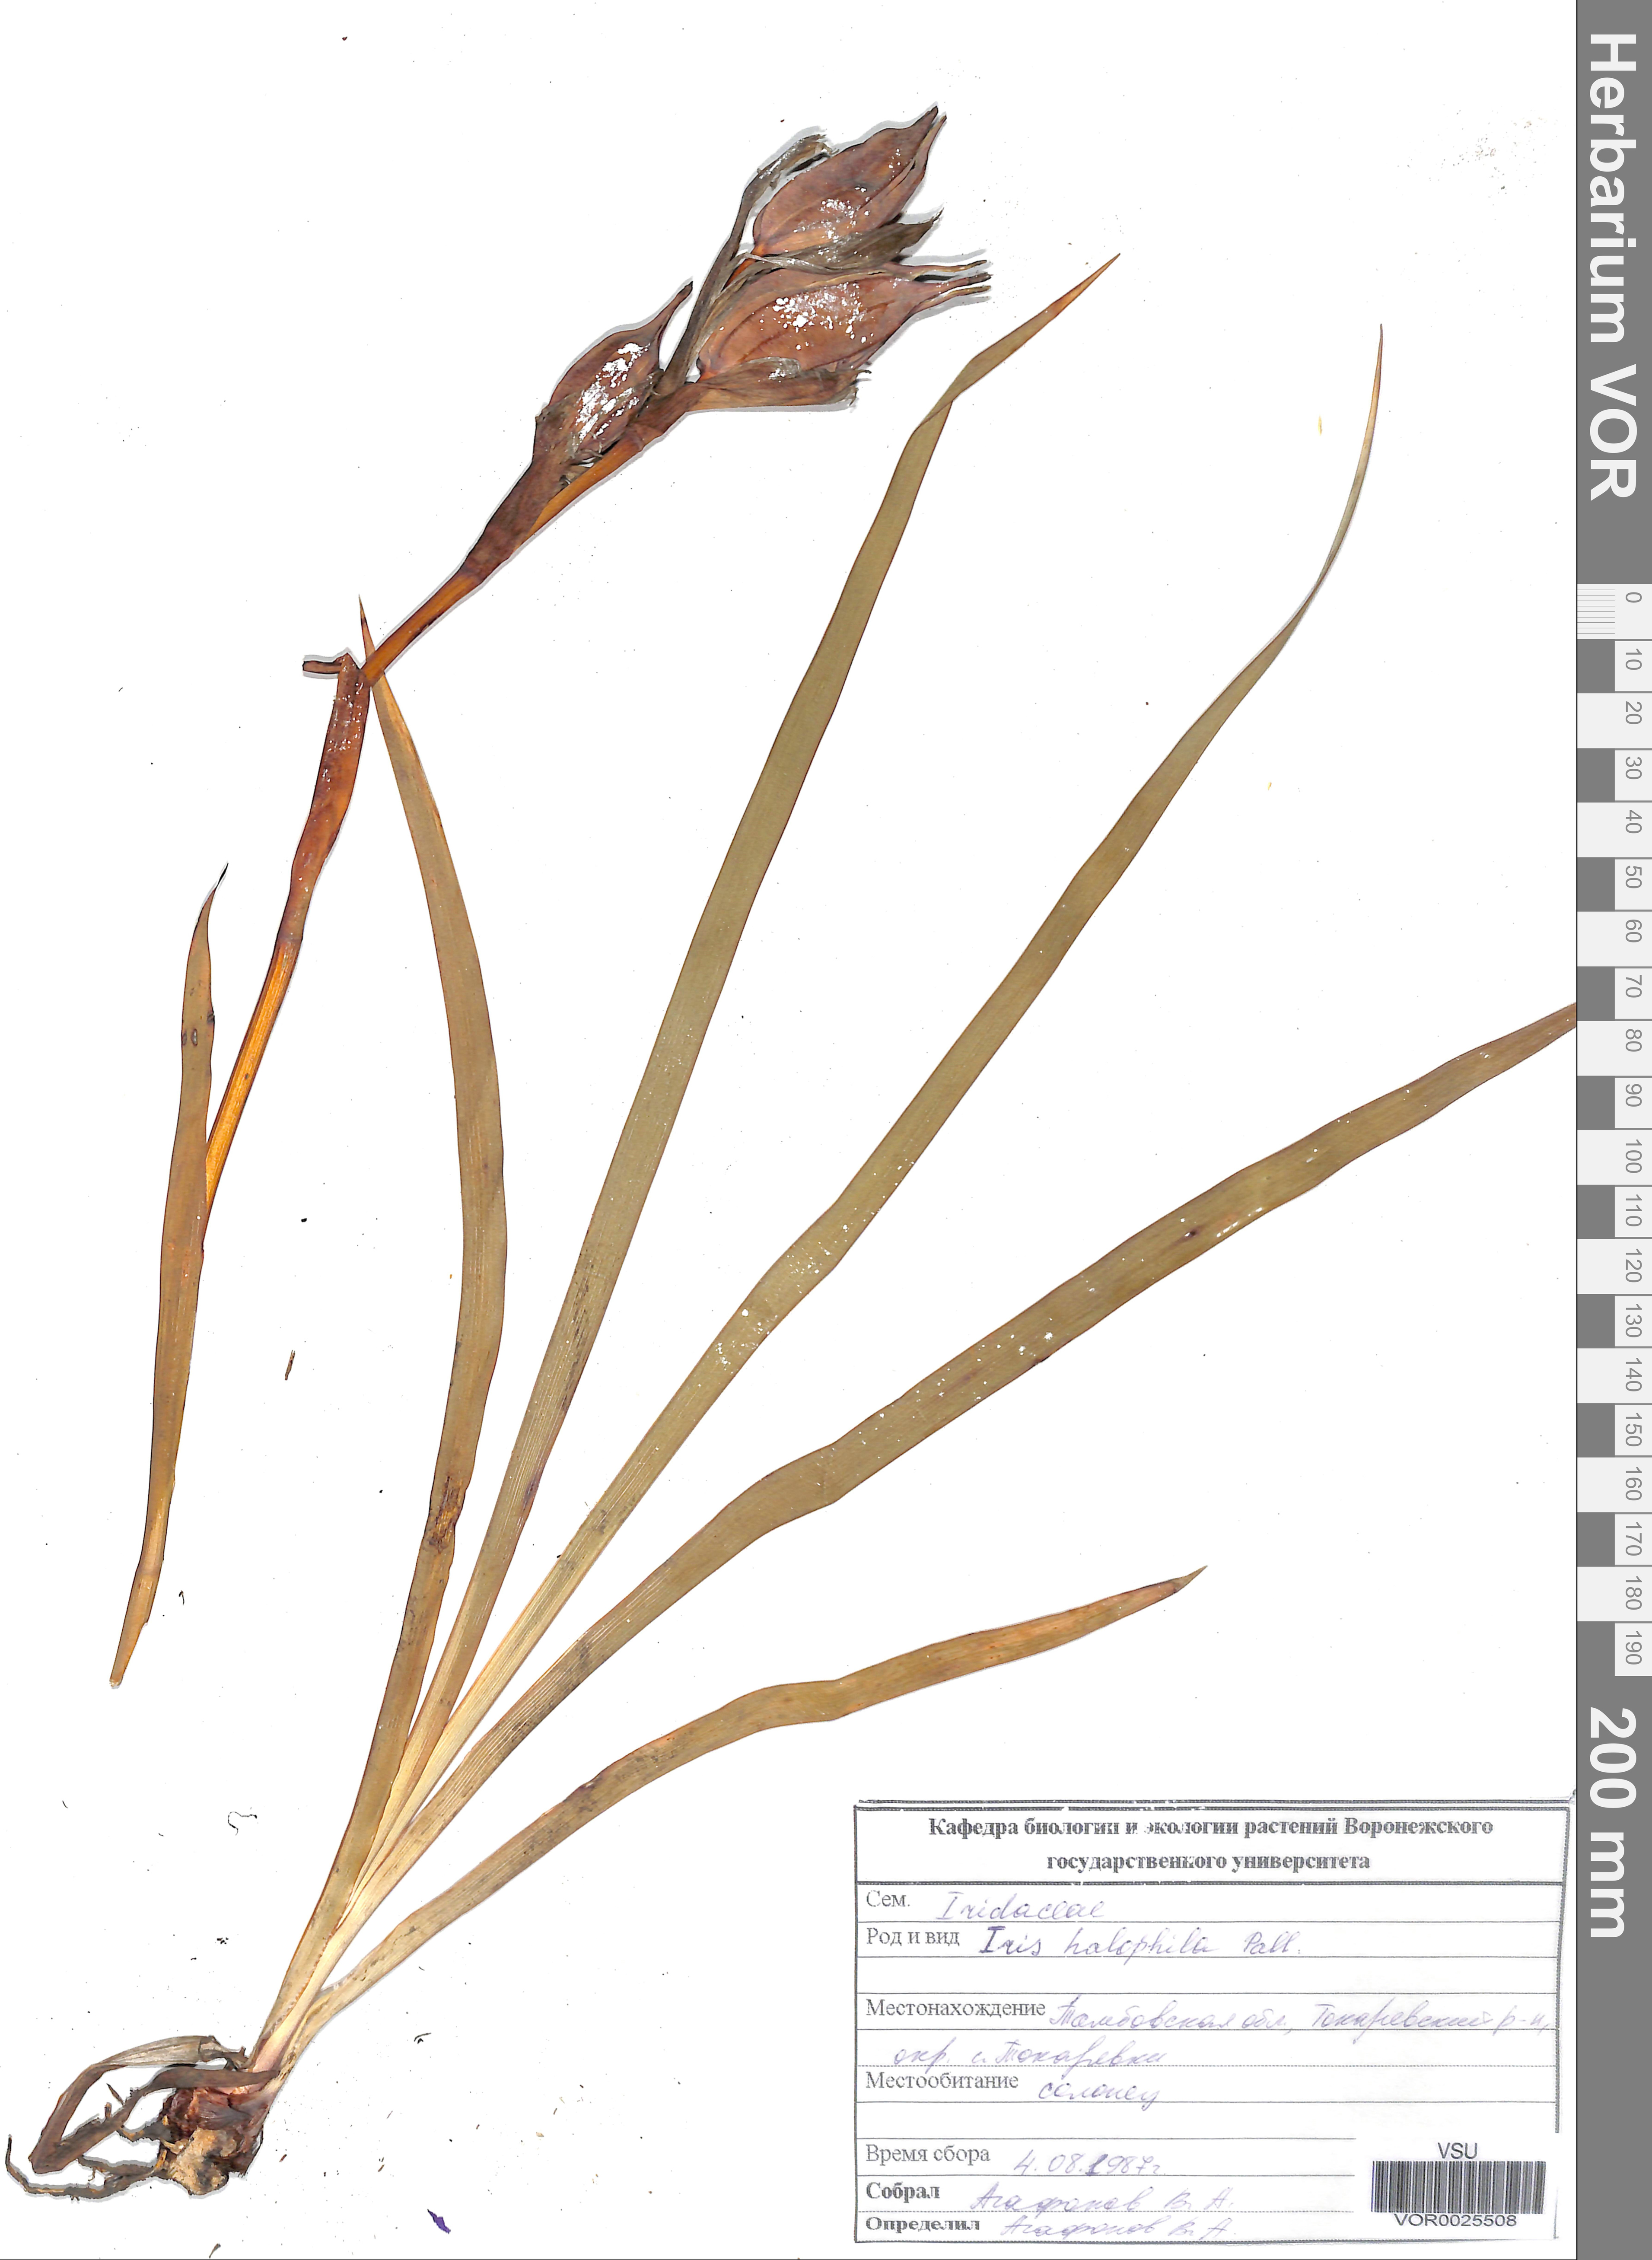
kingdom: Plantae
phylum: Tracheophyta
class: Liliopsida
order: Asparagales
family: Iridaceae
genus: Iris
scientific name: Iris halophila
